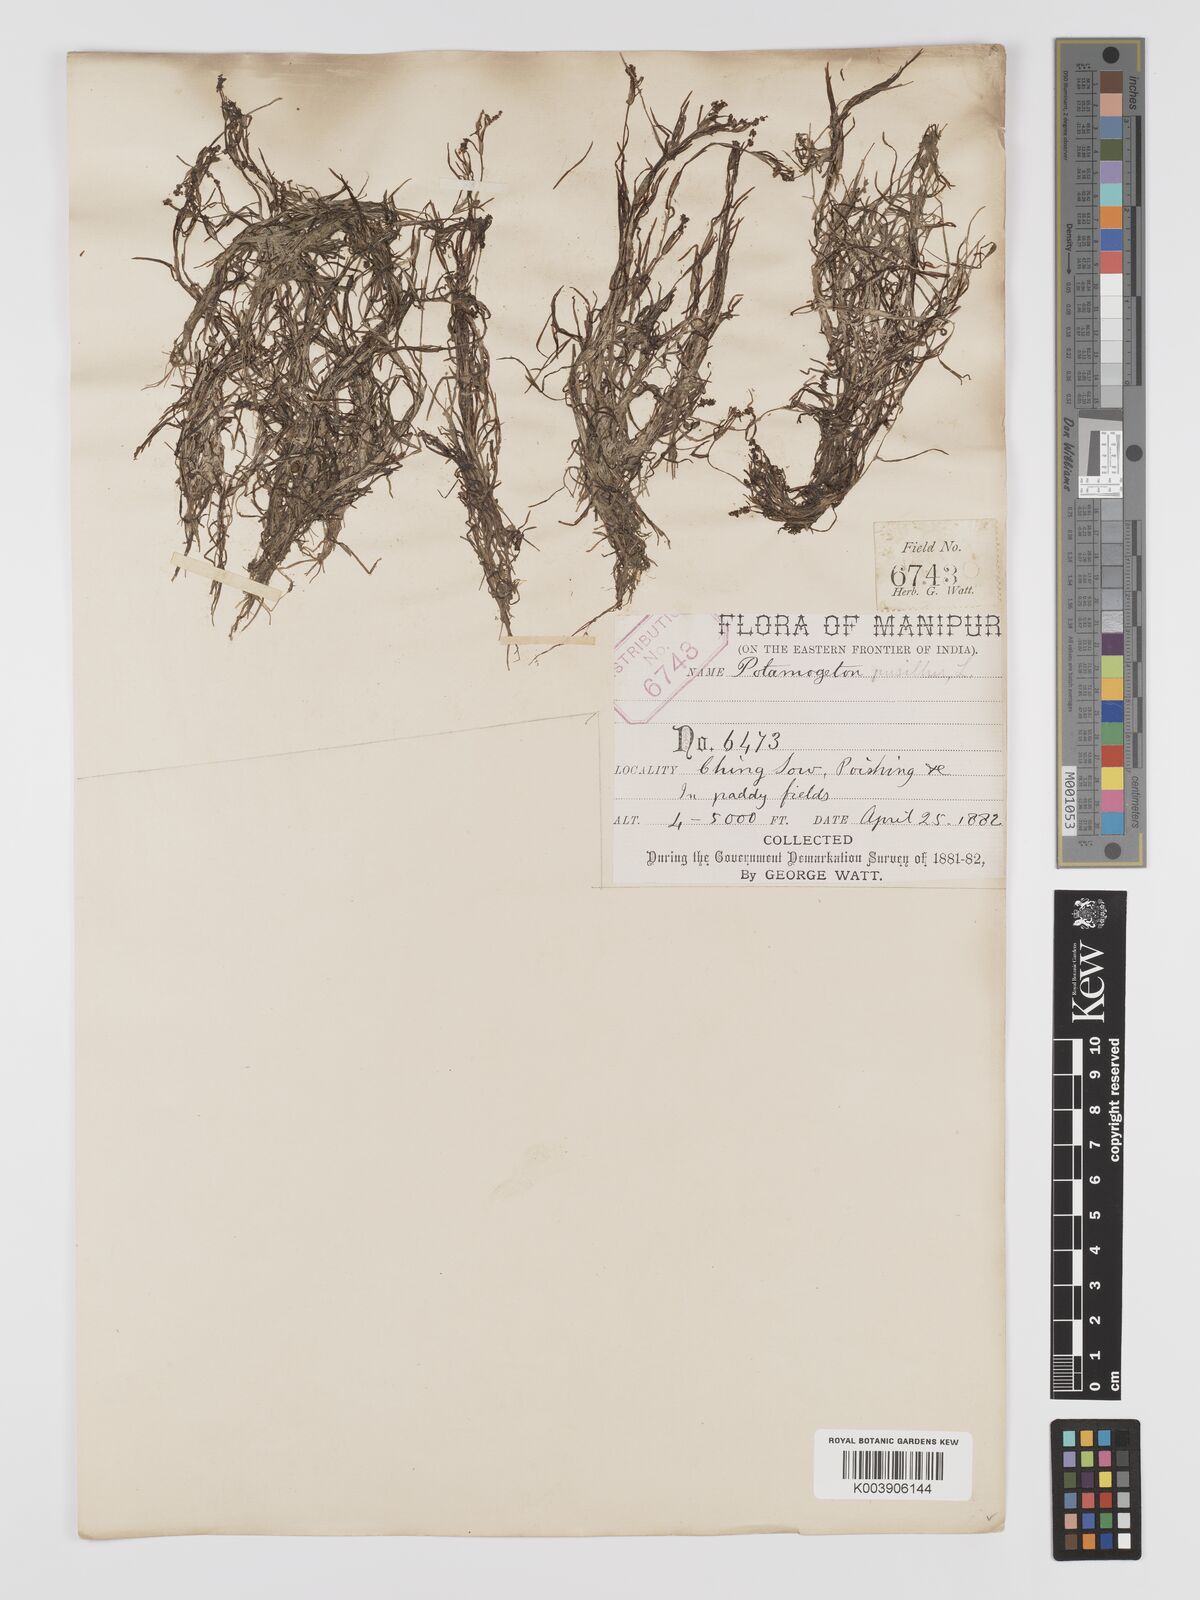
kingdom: Plantae
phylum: Tracheophyta
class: Liliopsida
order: Alismatales
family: Potamogetonaceae
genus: Stuckenia
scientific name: Stuckenia pectinata
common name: Sago pondweed
